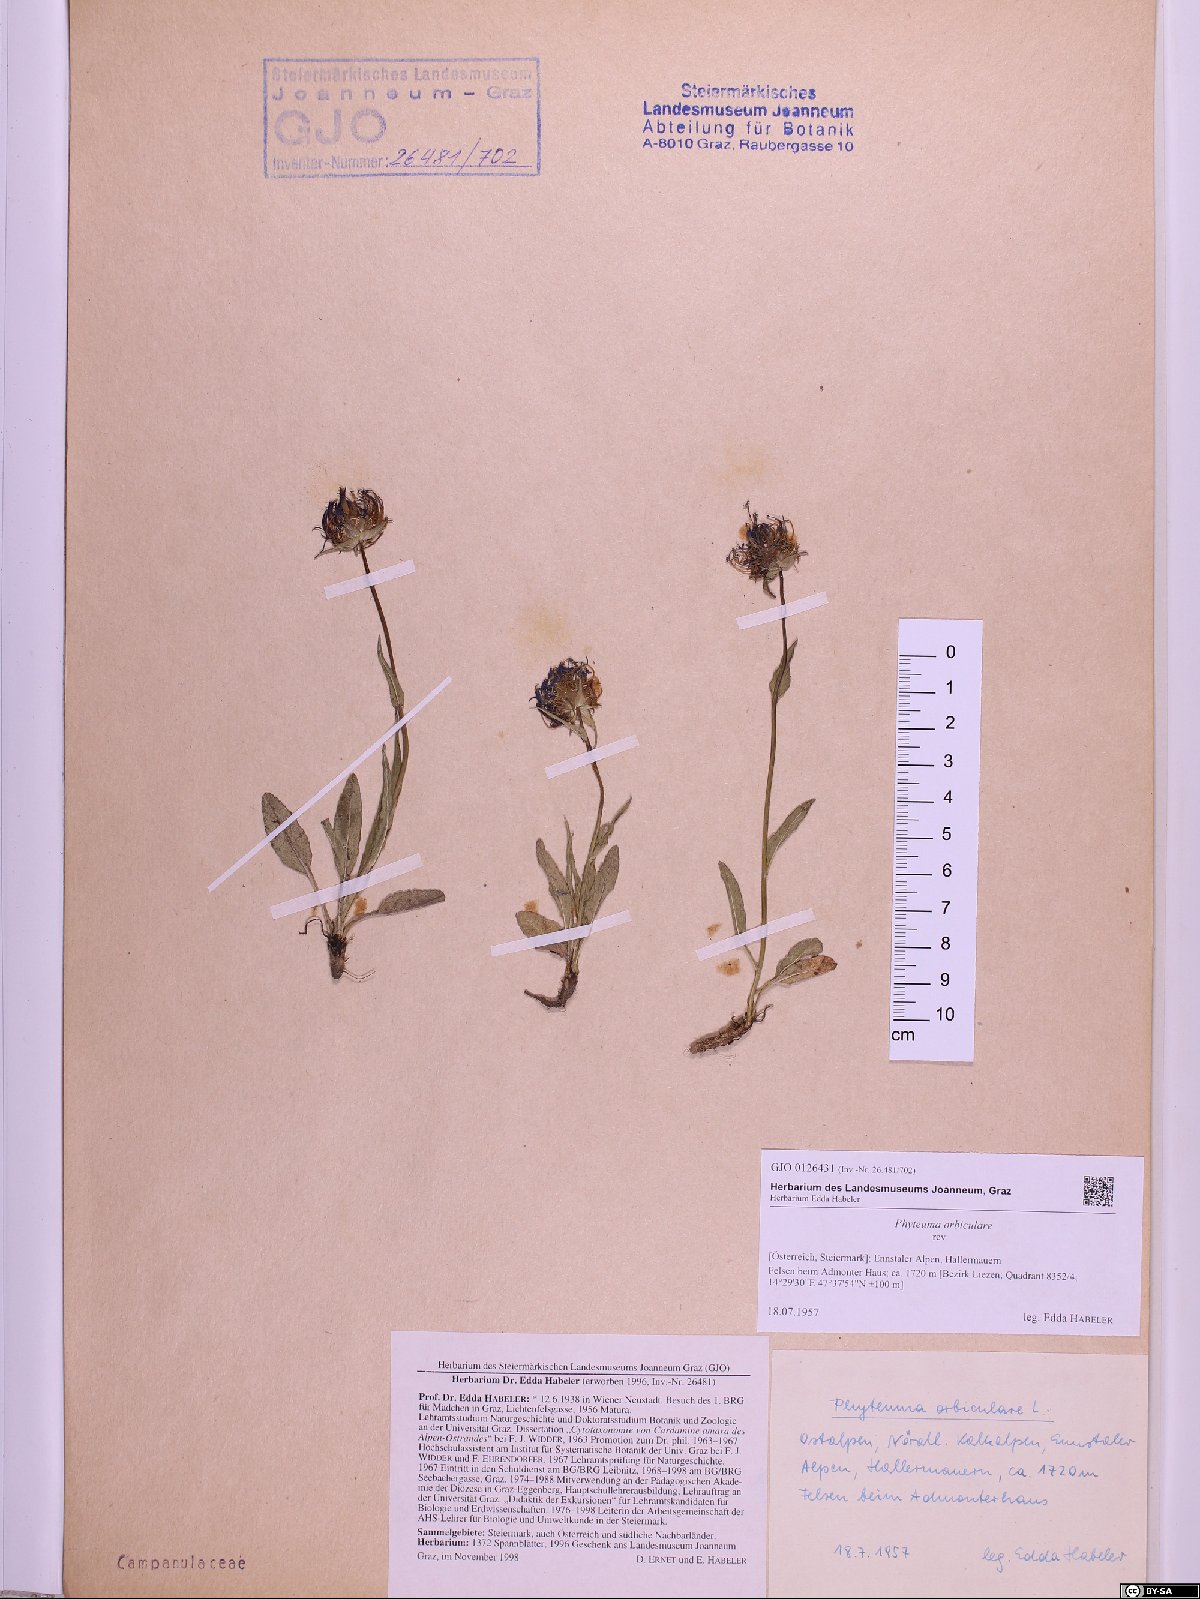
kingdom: Plantae
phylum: Tracheophyta
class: Magnoliopsida
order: Asterales
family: Campanulaceae
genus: Phyteuma
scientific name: Phyteuma orbiculare
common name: Round-headed rampion
